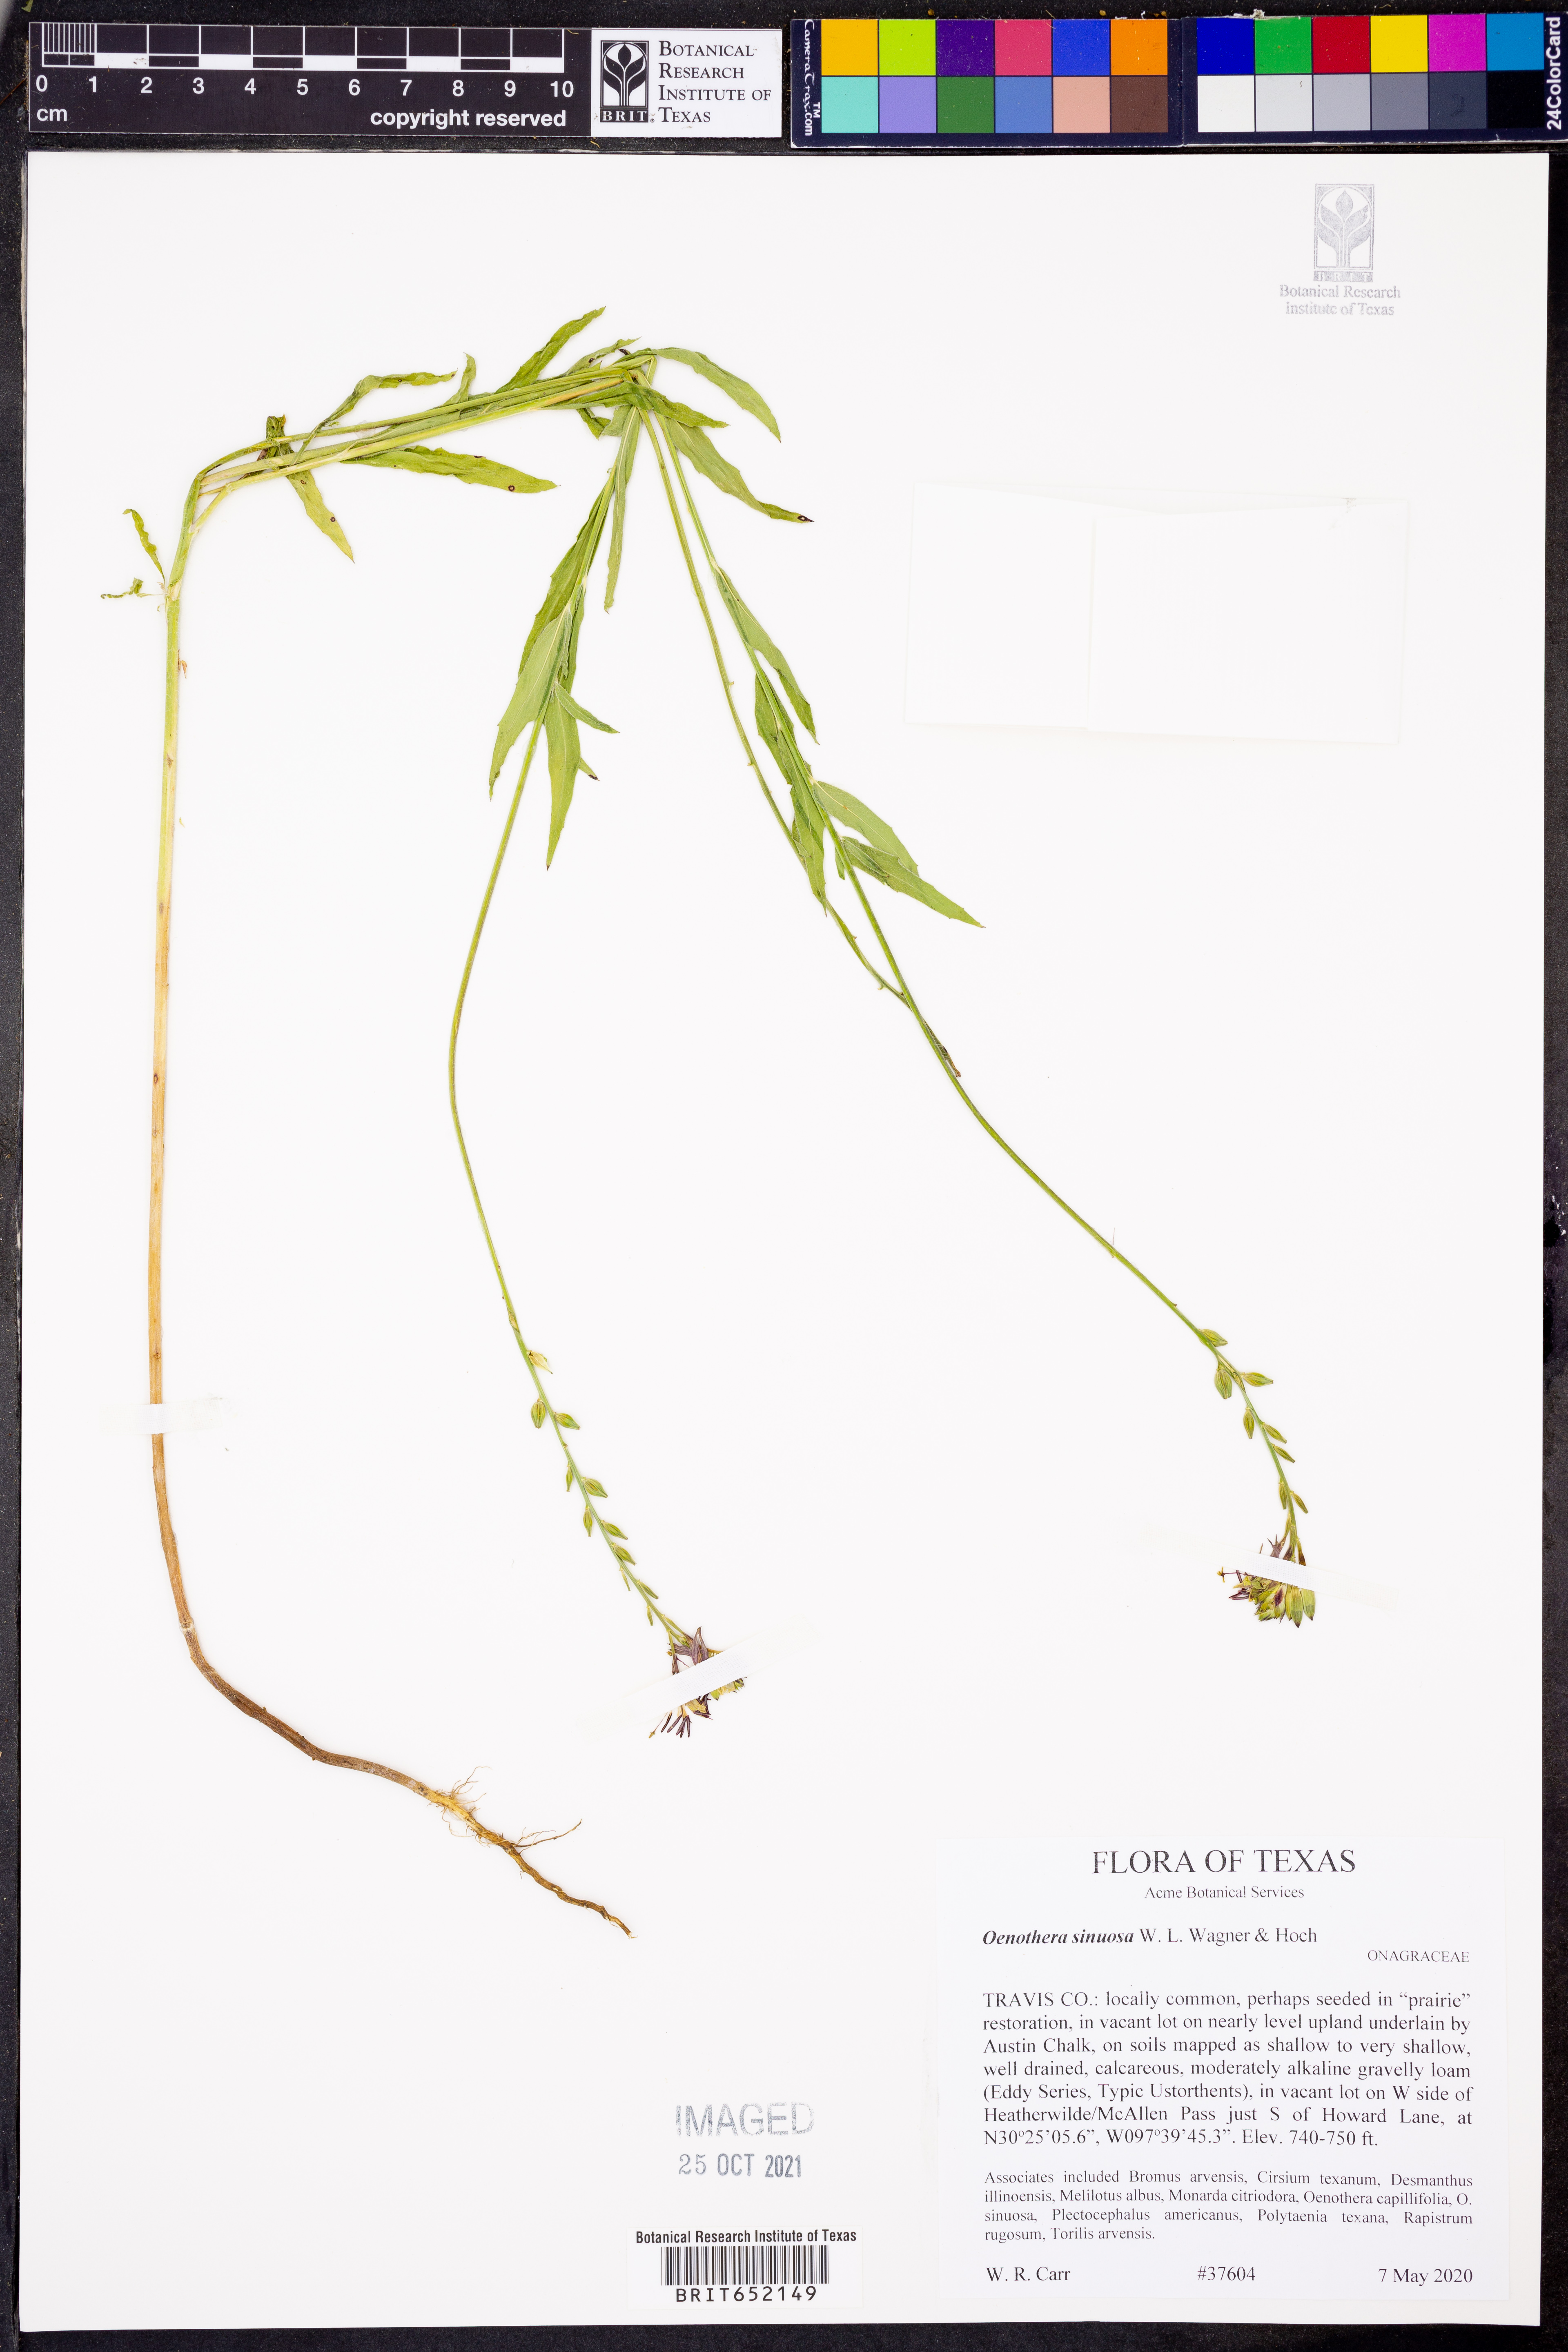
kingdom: Plantae
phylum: Tracheophyta
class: Magnoliopsida
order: Myrtales
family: Onagraceae
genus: Oenothera
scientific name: Oenothera sinuosa
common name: Wavyleaf beeblossom
